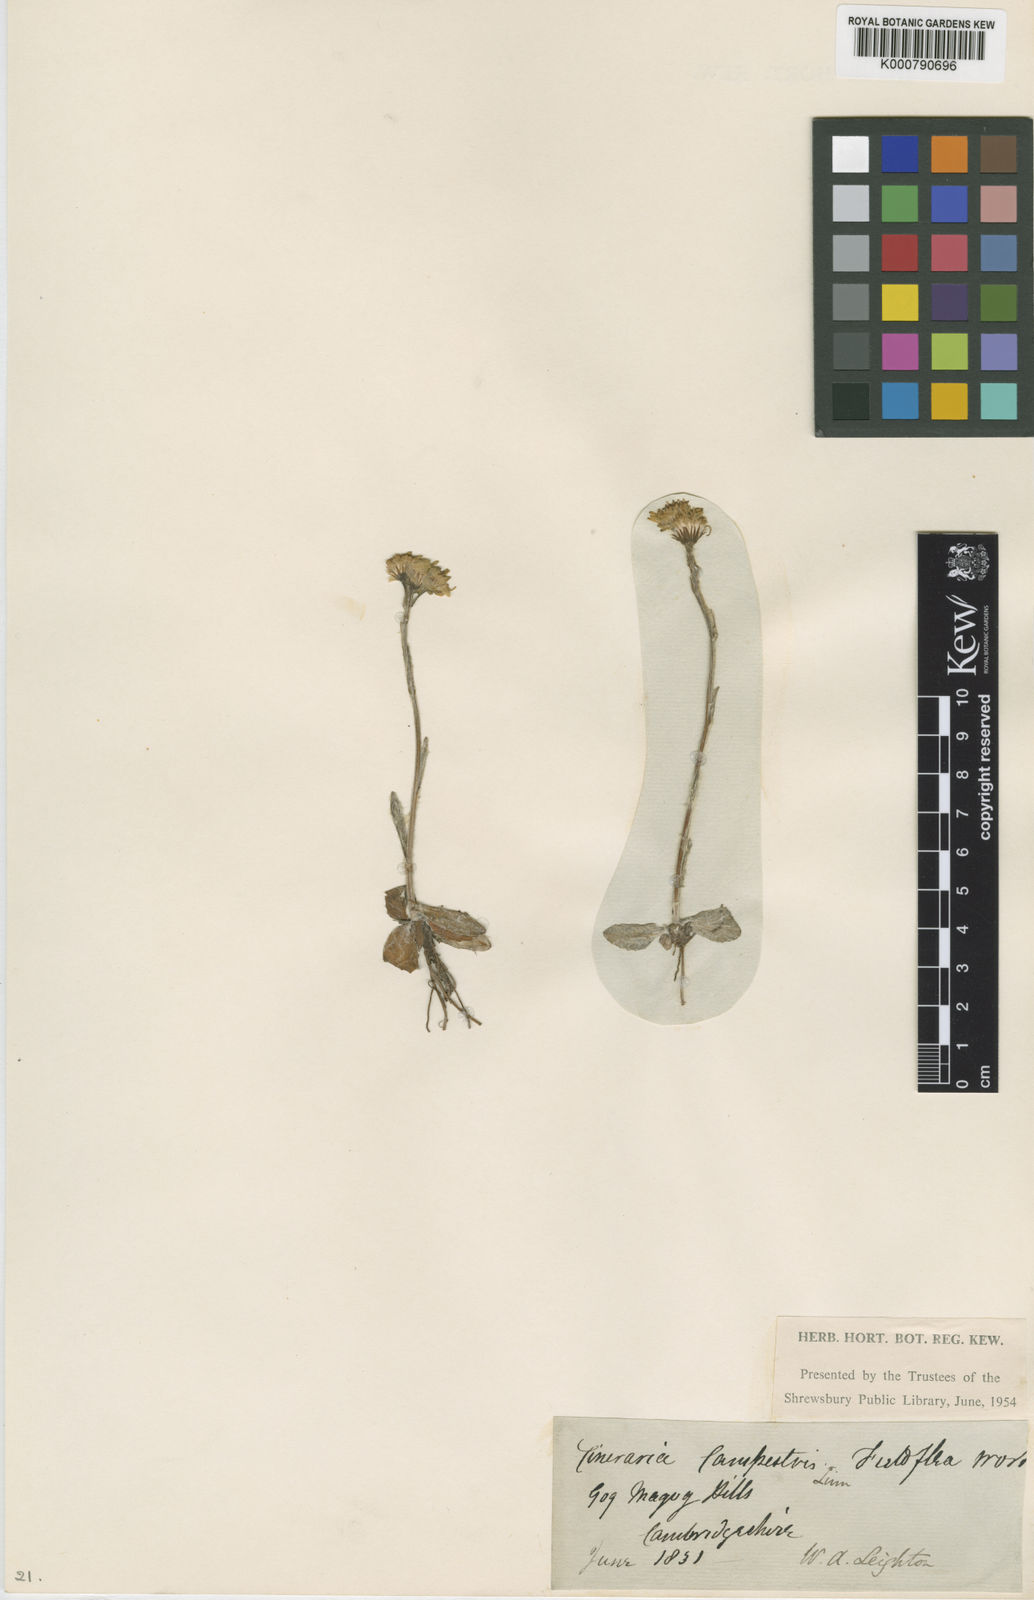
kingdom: Plantae
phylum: Tracheophyta
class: Magnoliopsida
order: Asterales
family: Asteraceae
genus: Tephroseris
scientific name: Tephroseris integrifolia
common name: Field fleawort
